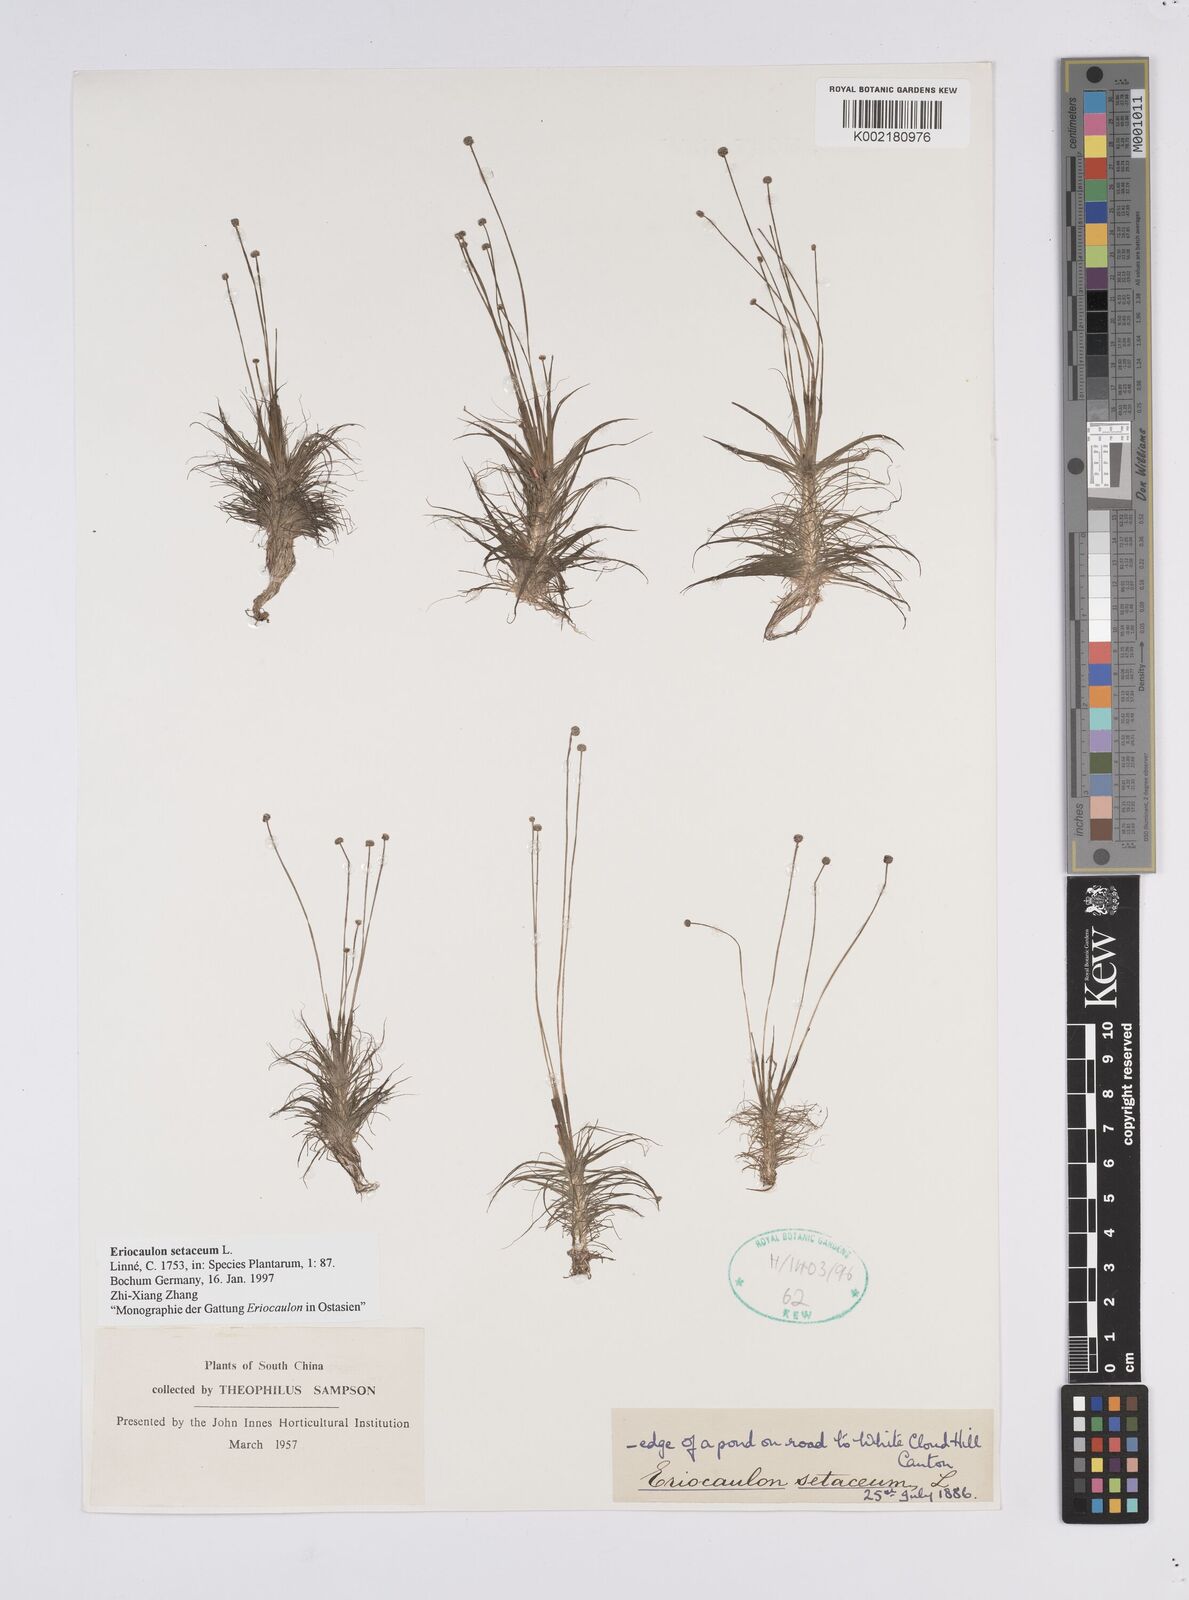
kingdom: Plantae
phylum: Tracheophyta
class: Liliopsida
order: Poales
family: Eriocaulaceae
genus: Eriocaulon
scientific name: Eriocaulon setaceum
